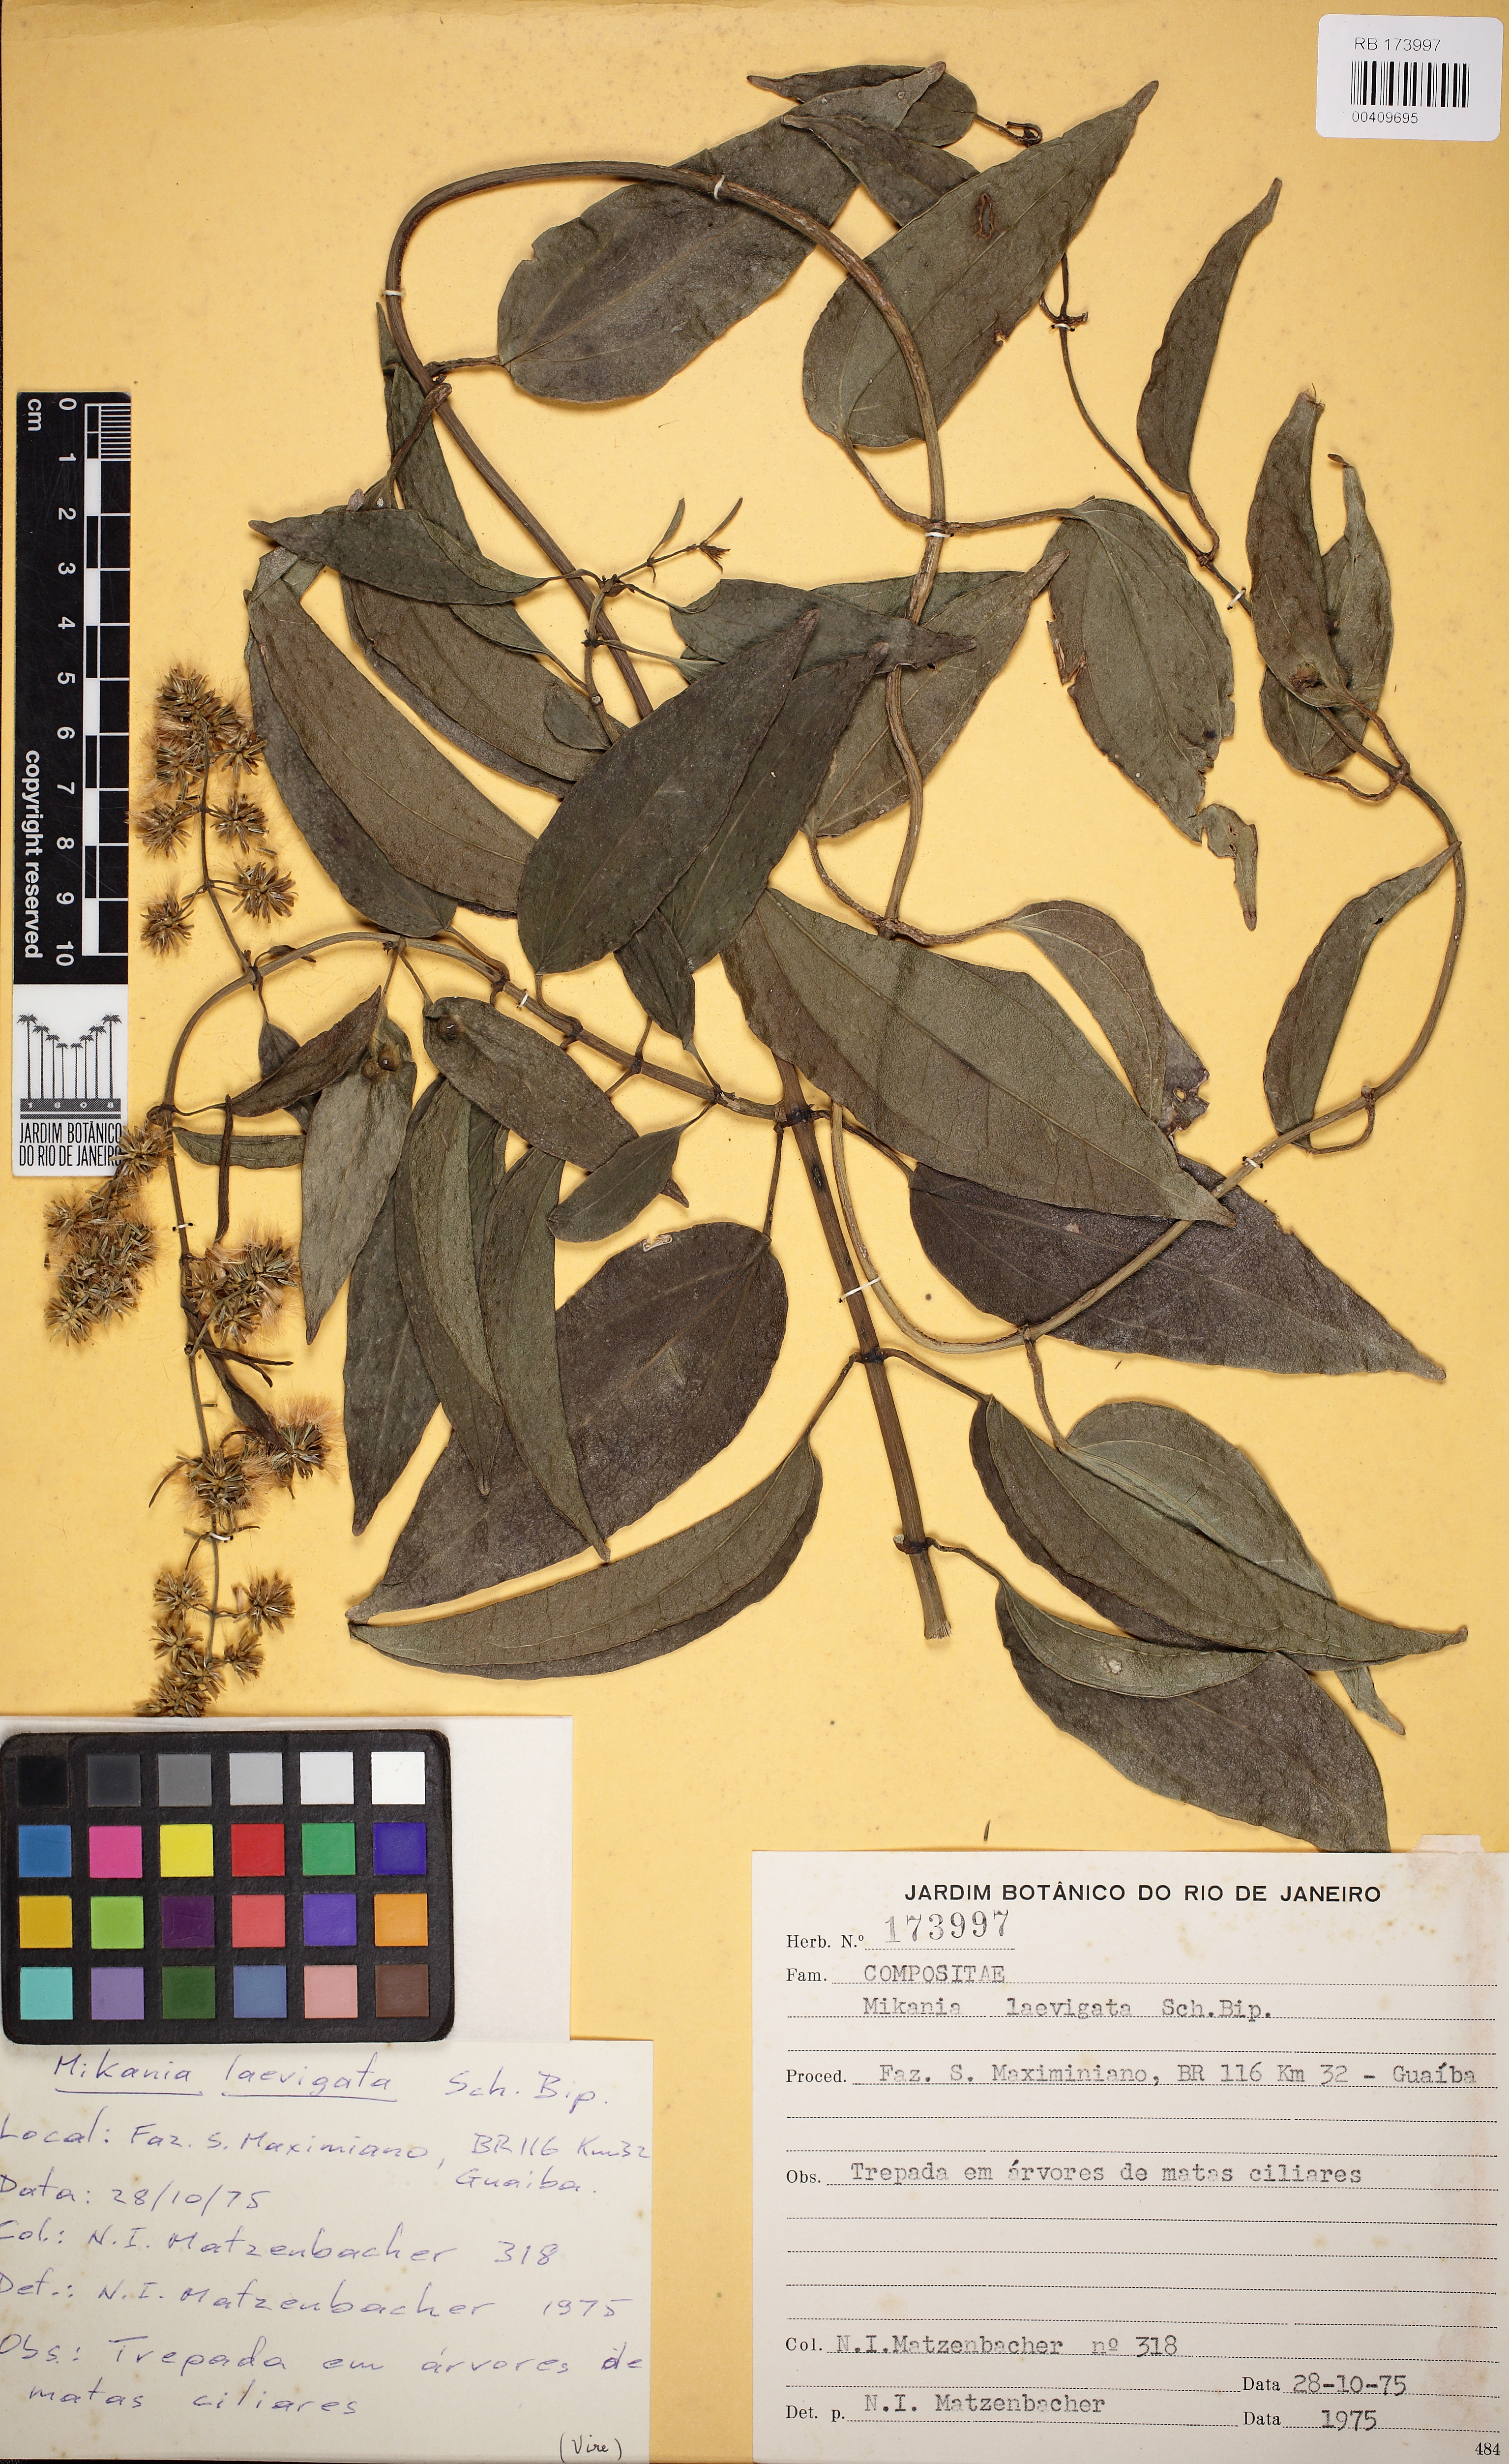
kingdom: Plantae
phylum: Tracheophyta
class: Magnoliopsida
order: Asterales
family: Asteraceae
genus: Mikania
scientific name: Mikania laevigata
